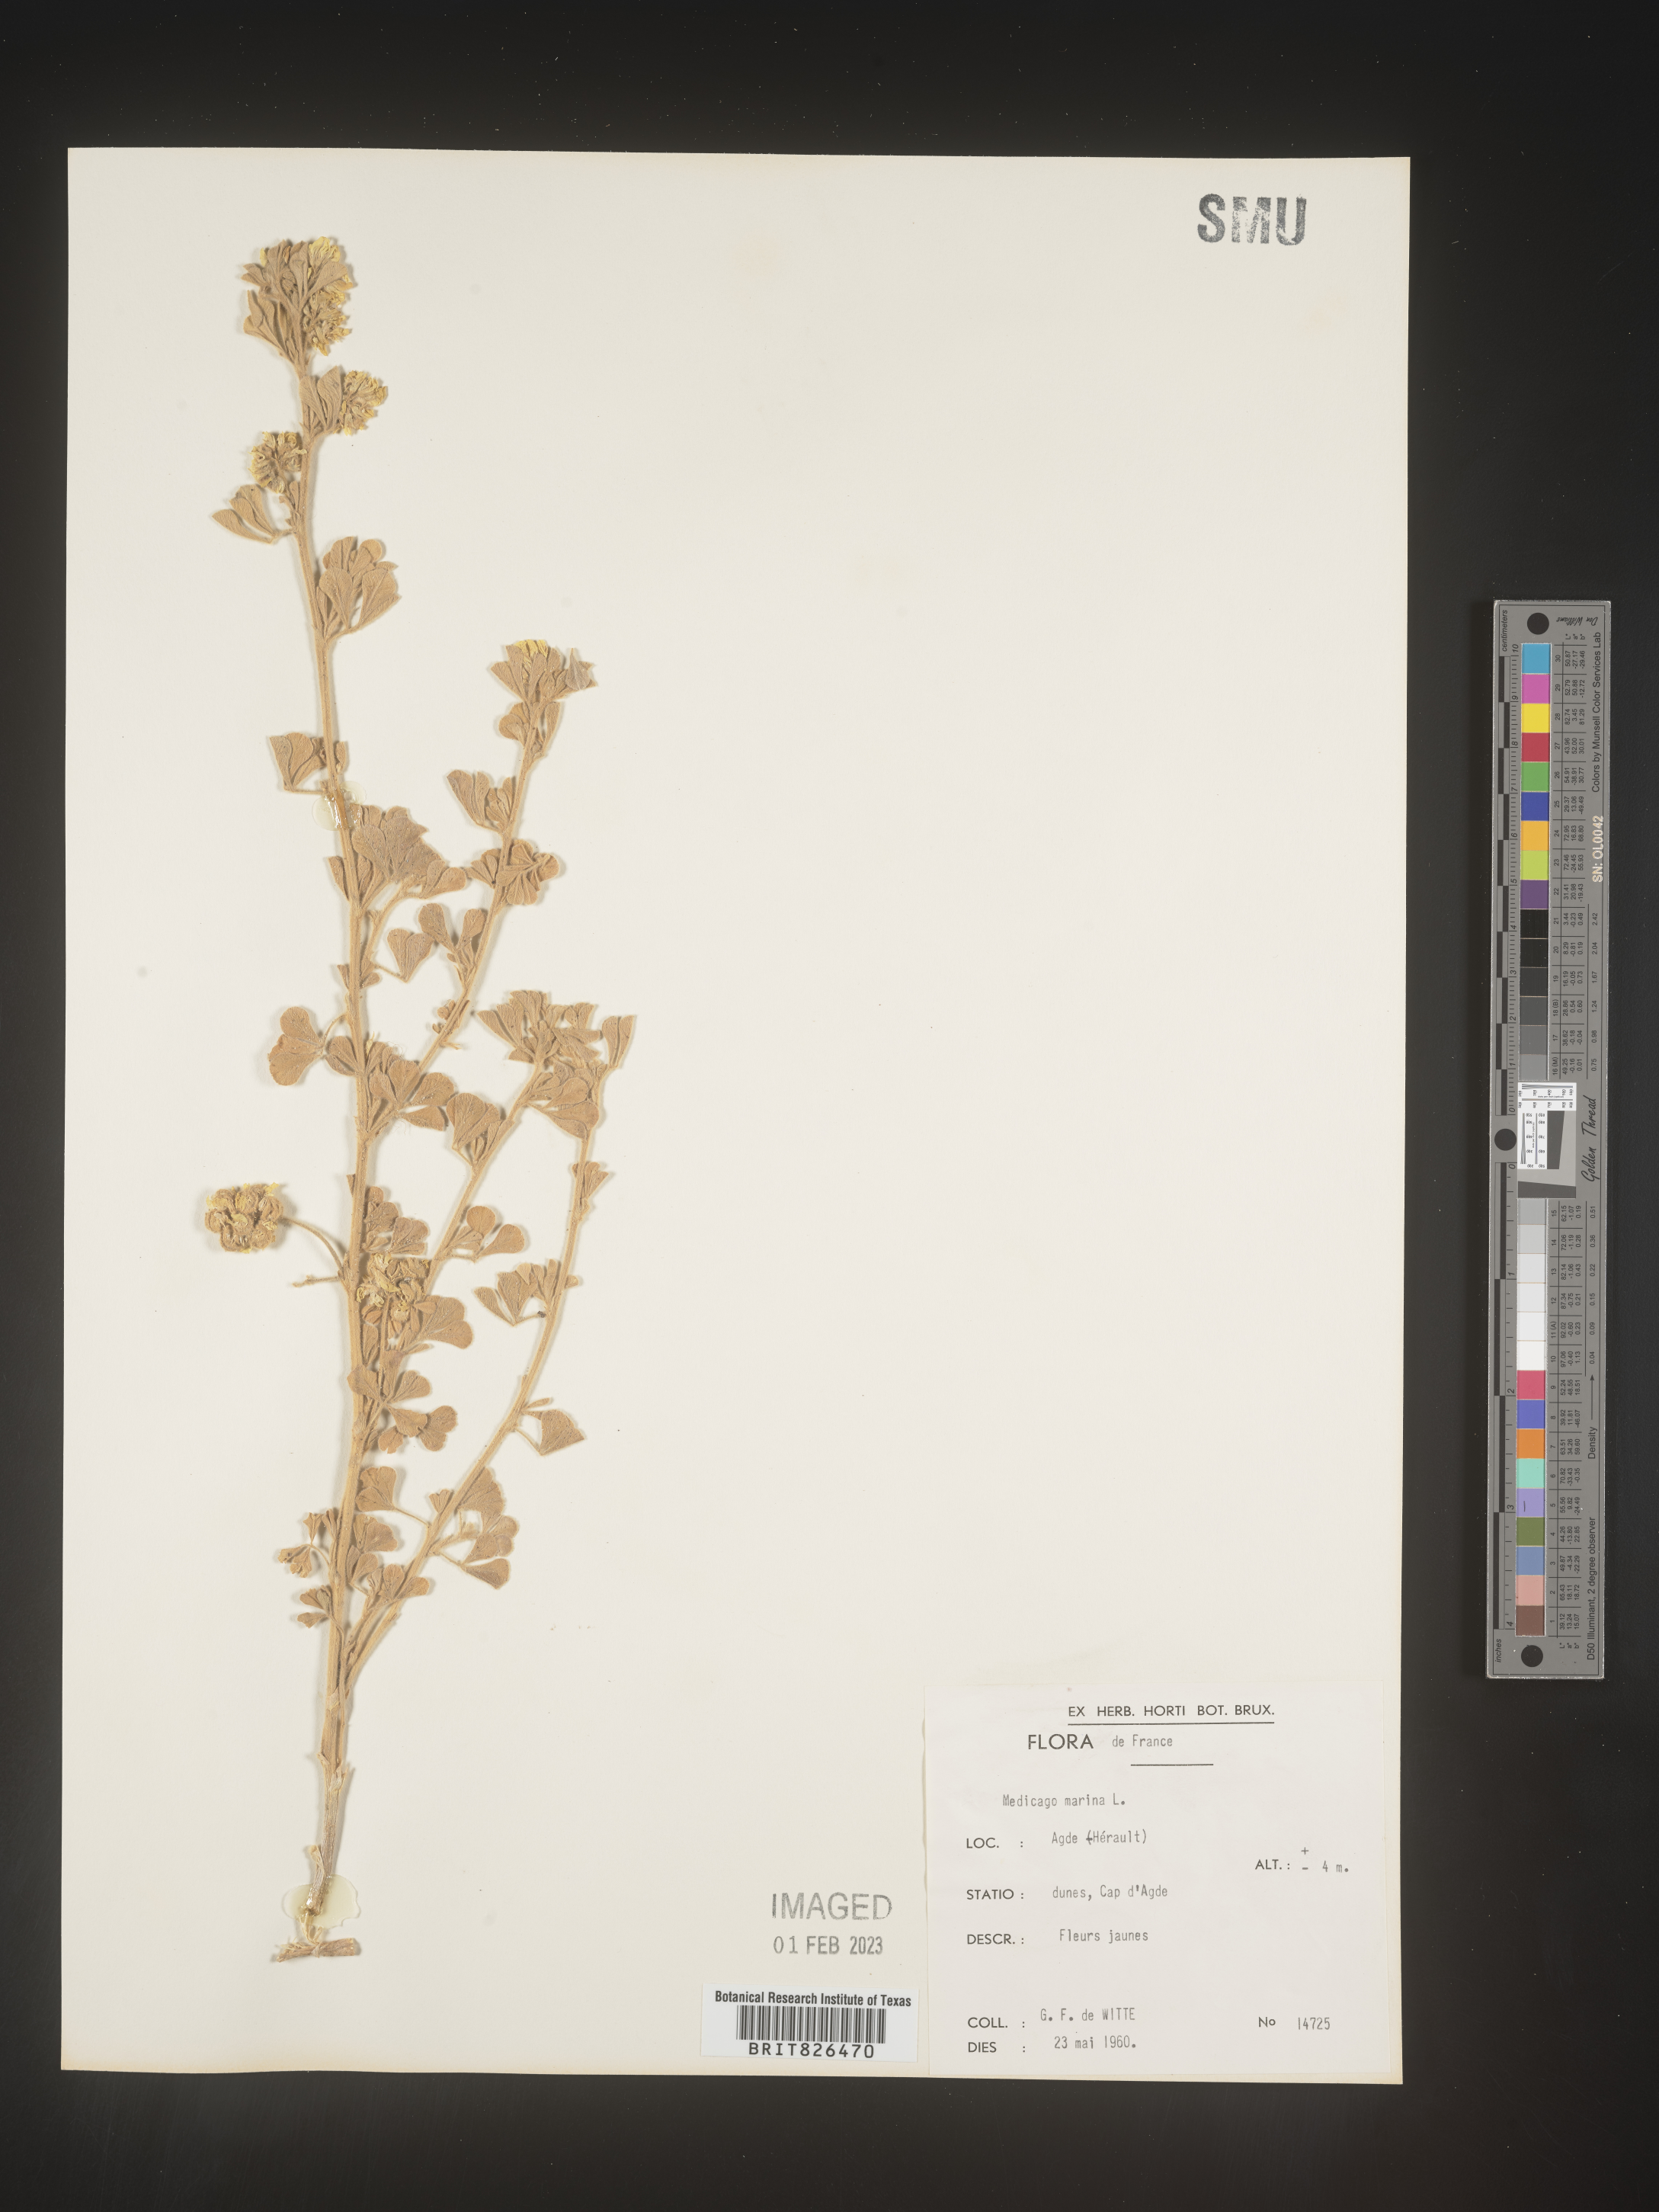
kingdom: Plantae
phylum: Tracheophyta
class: Magnoliopsida
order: Fabales
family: Fabaceae
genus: Medicago
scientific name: Medicago
